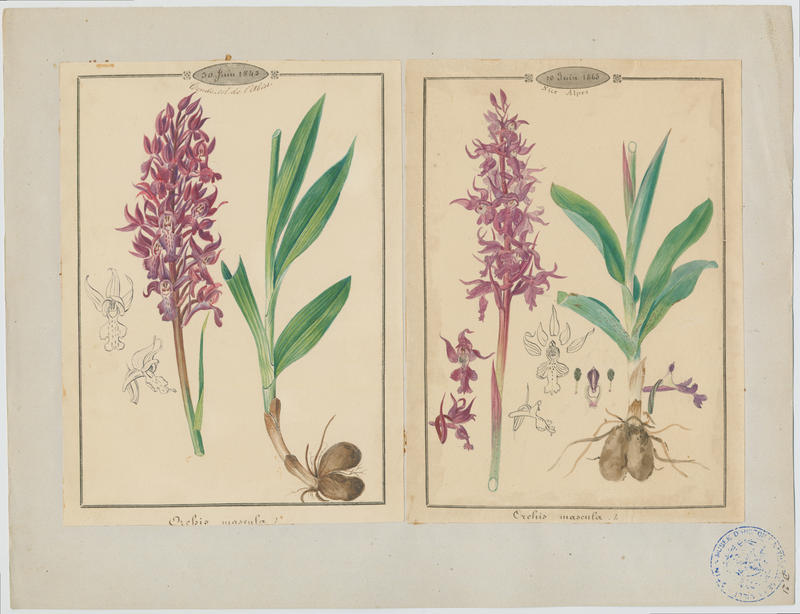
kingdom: Plantae
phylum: Tracheophyta
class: Liliopsida
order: Asparagales
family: Orchidaceae
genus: Orchis
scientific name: Orchis mascula
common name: Early-purple orchid
